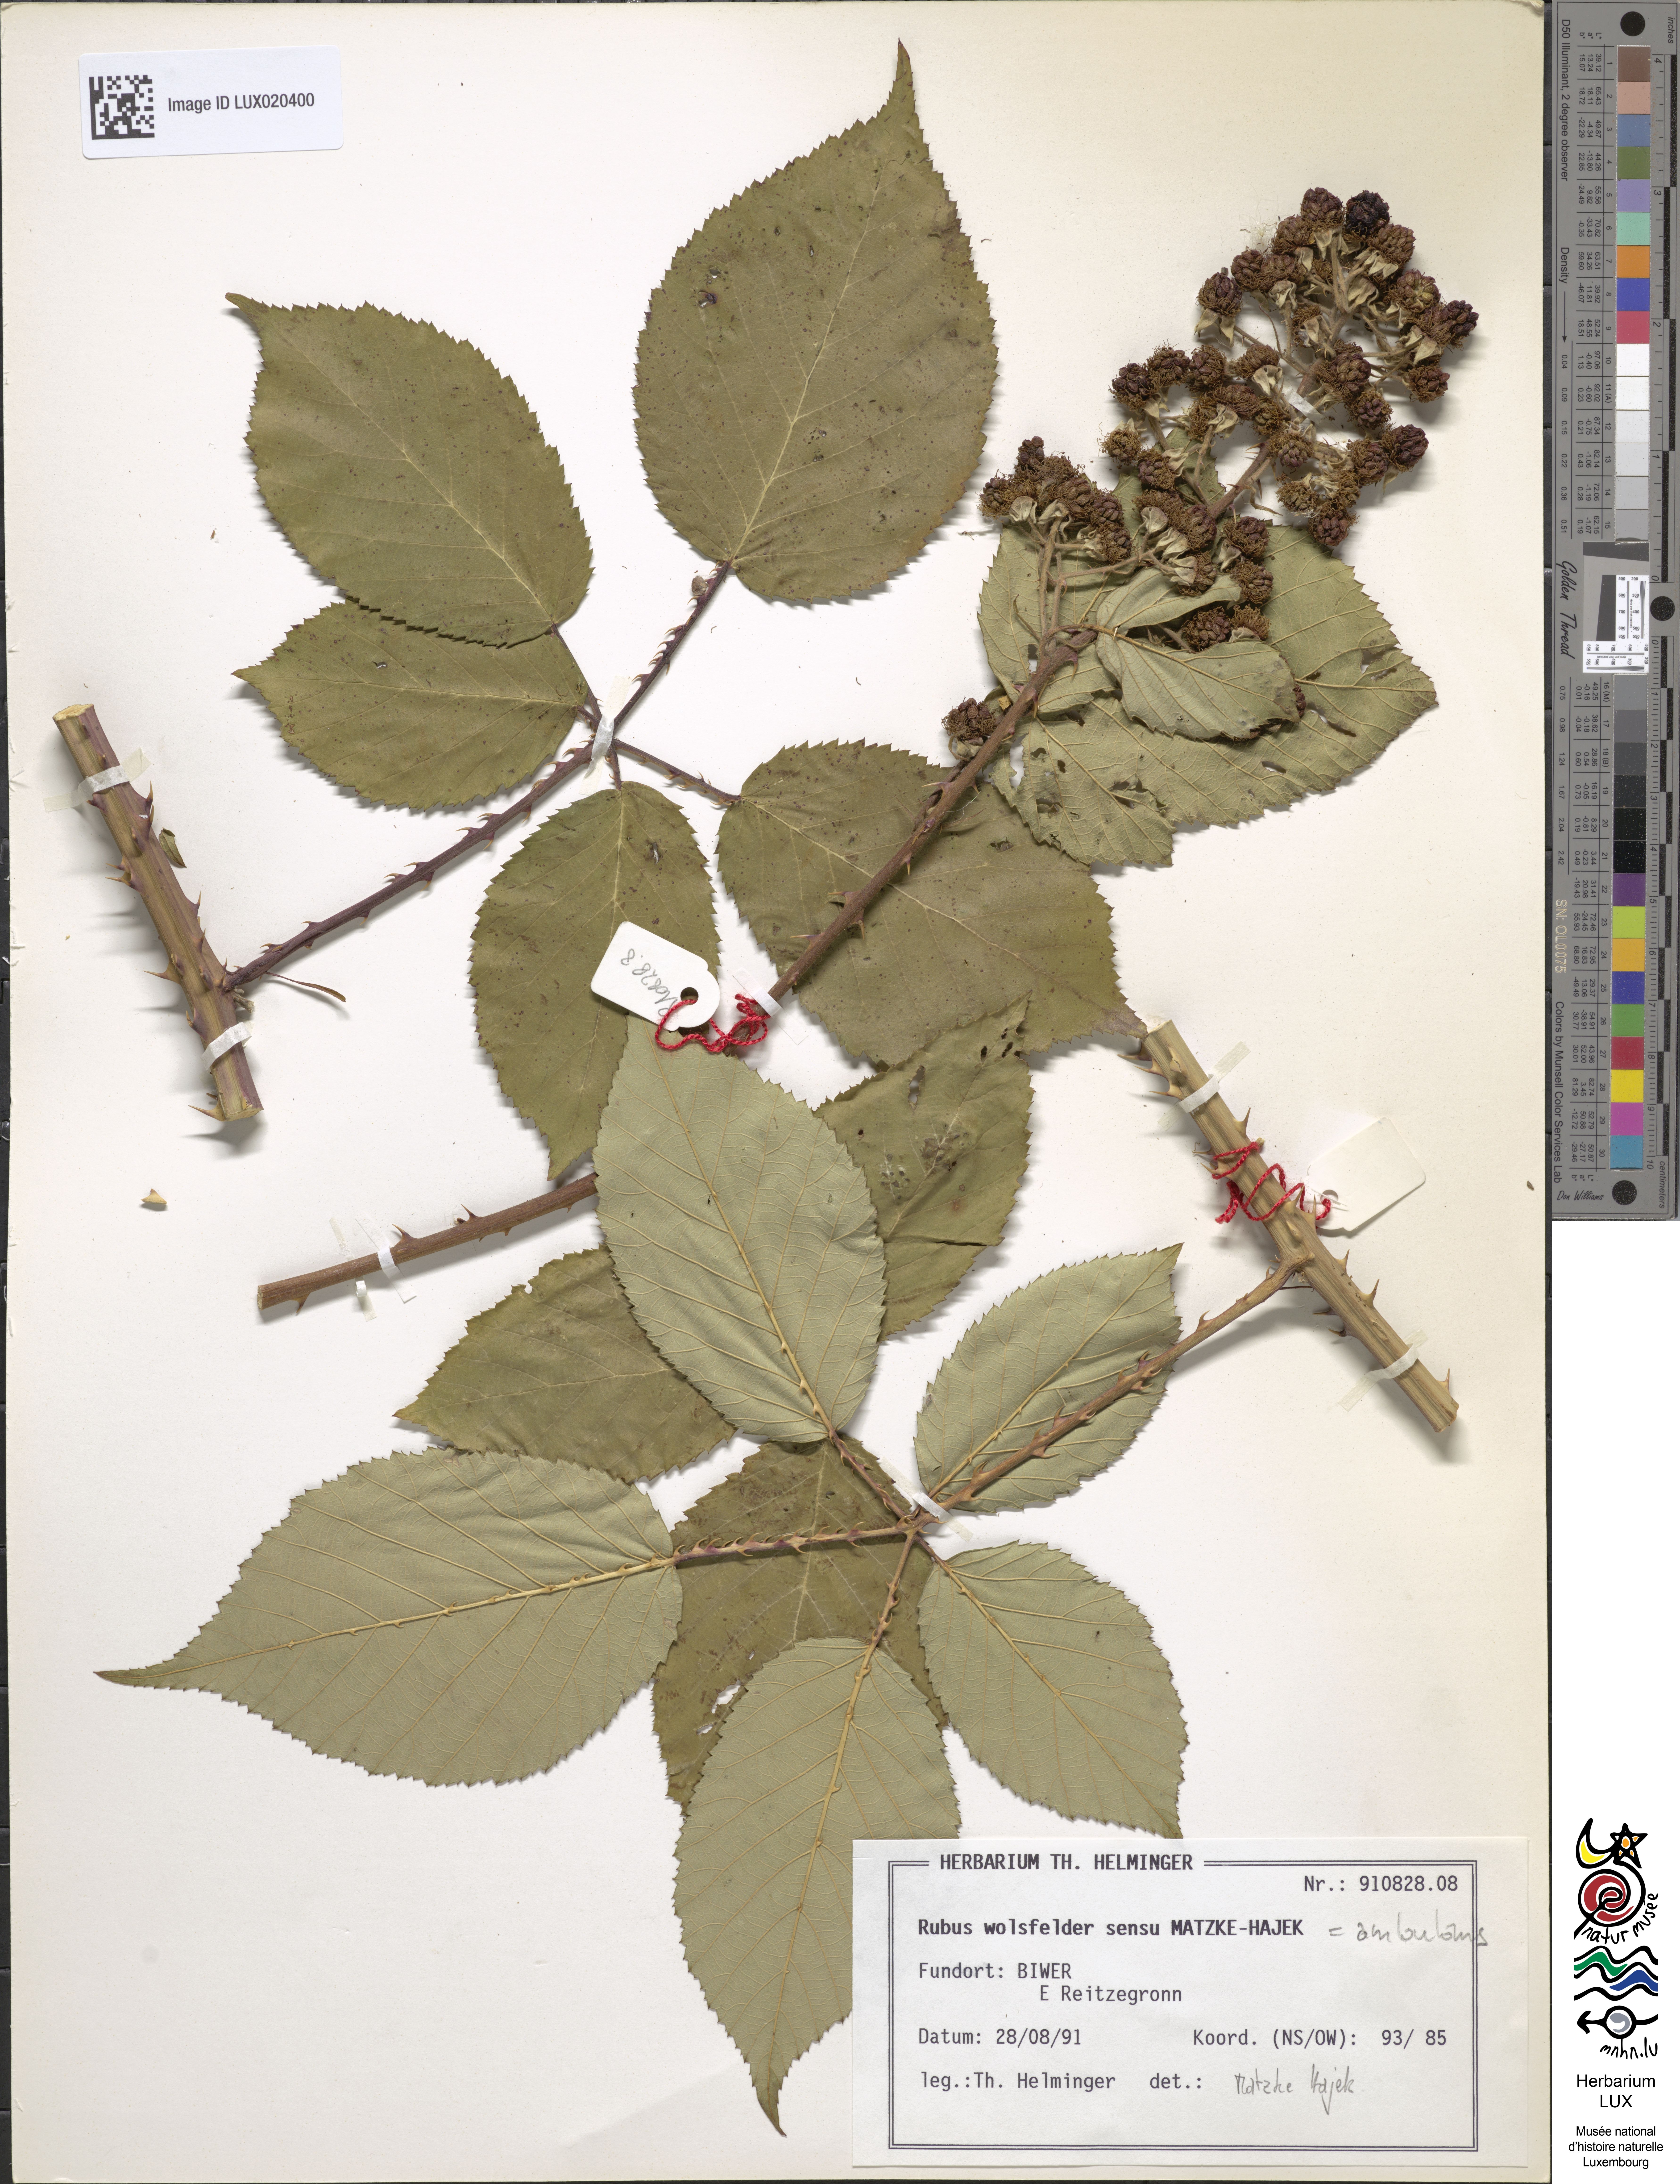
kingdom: Plantae
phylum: Tracheophyta
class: Magnoliopsida
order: Rosales
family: Rosaceae
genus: Rubus
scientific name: Rubus gremlii
